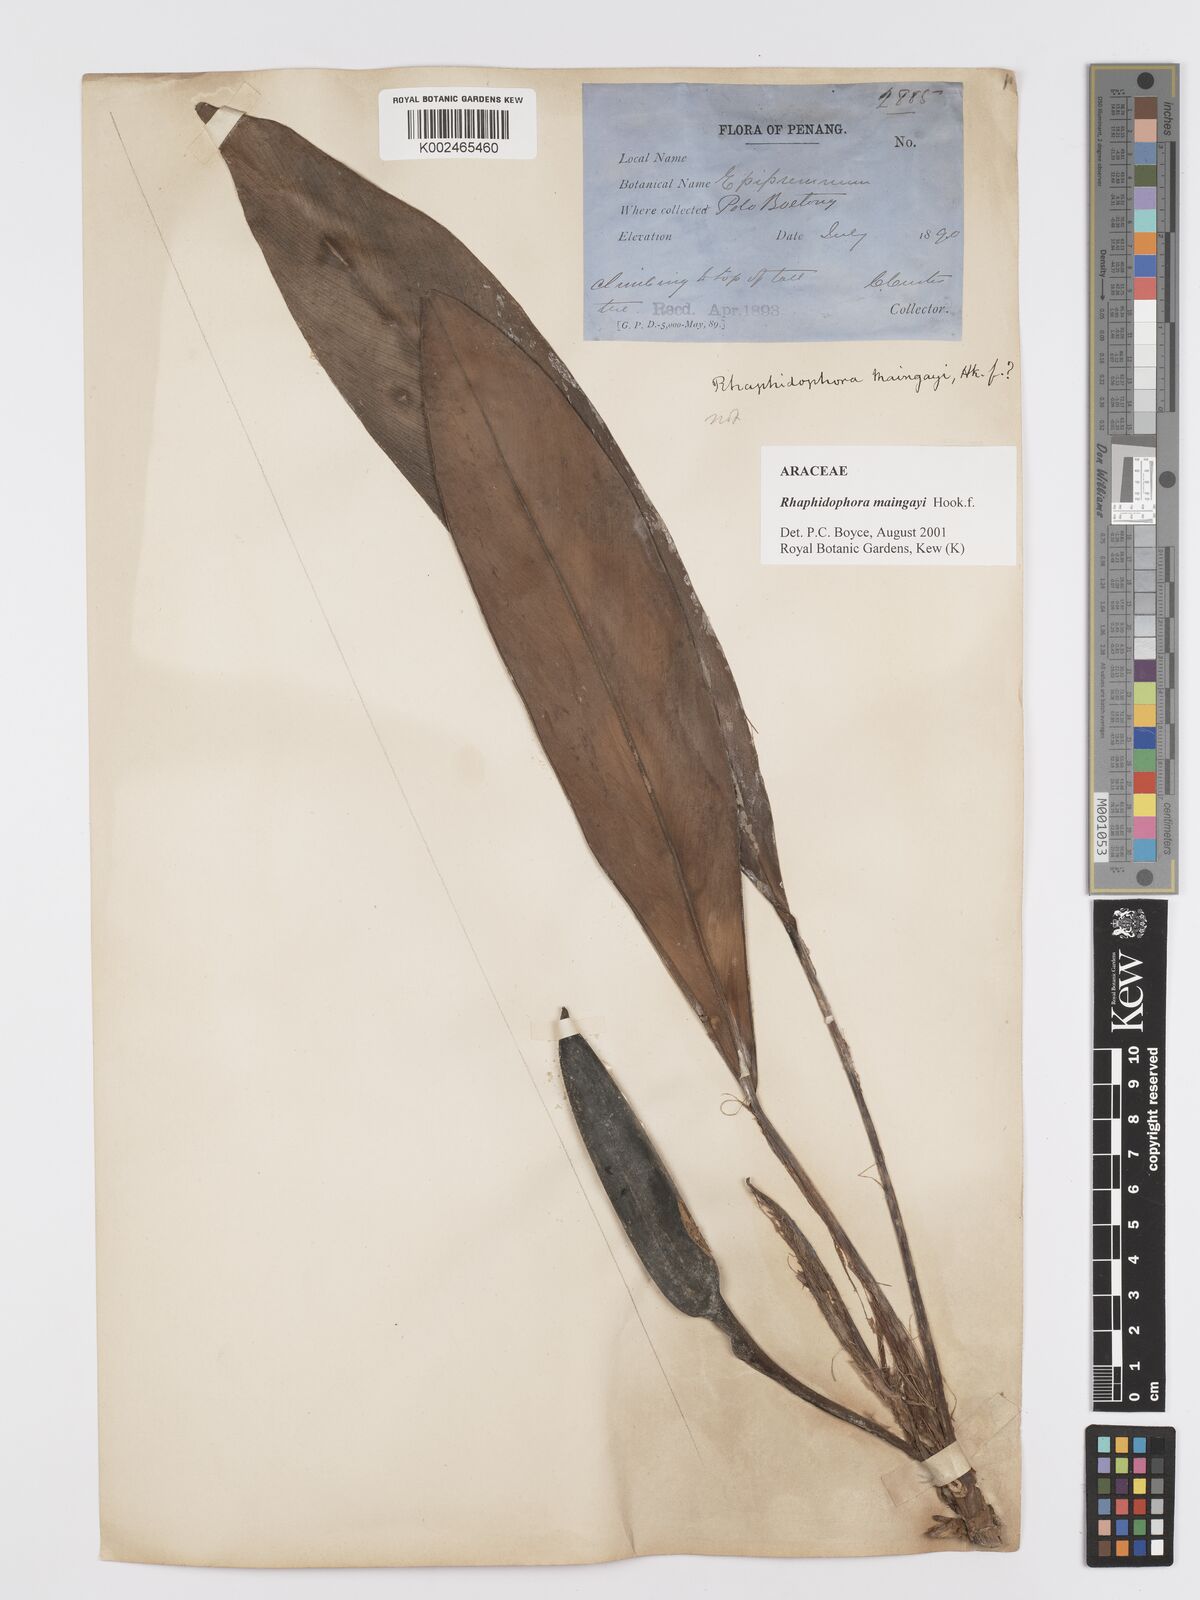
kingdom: Plantae
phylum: Tracheophyta
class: Liliopsida
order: Alismatales
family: Araceae
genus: Rhaphidophora
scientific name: Rhaphidophora maingayi
